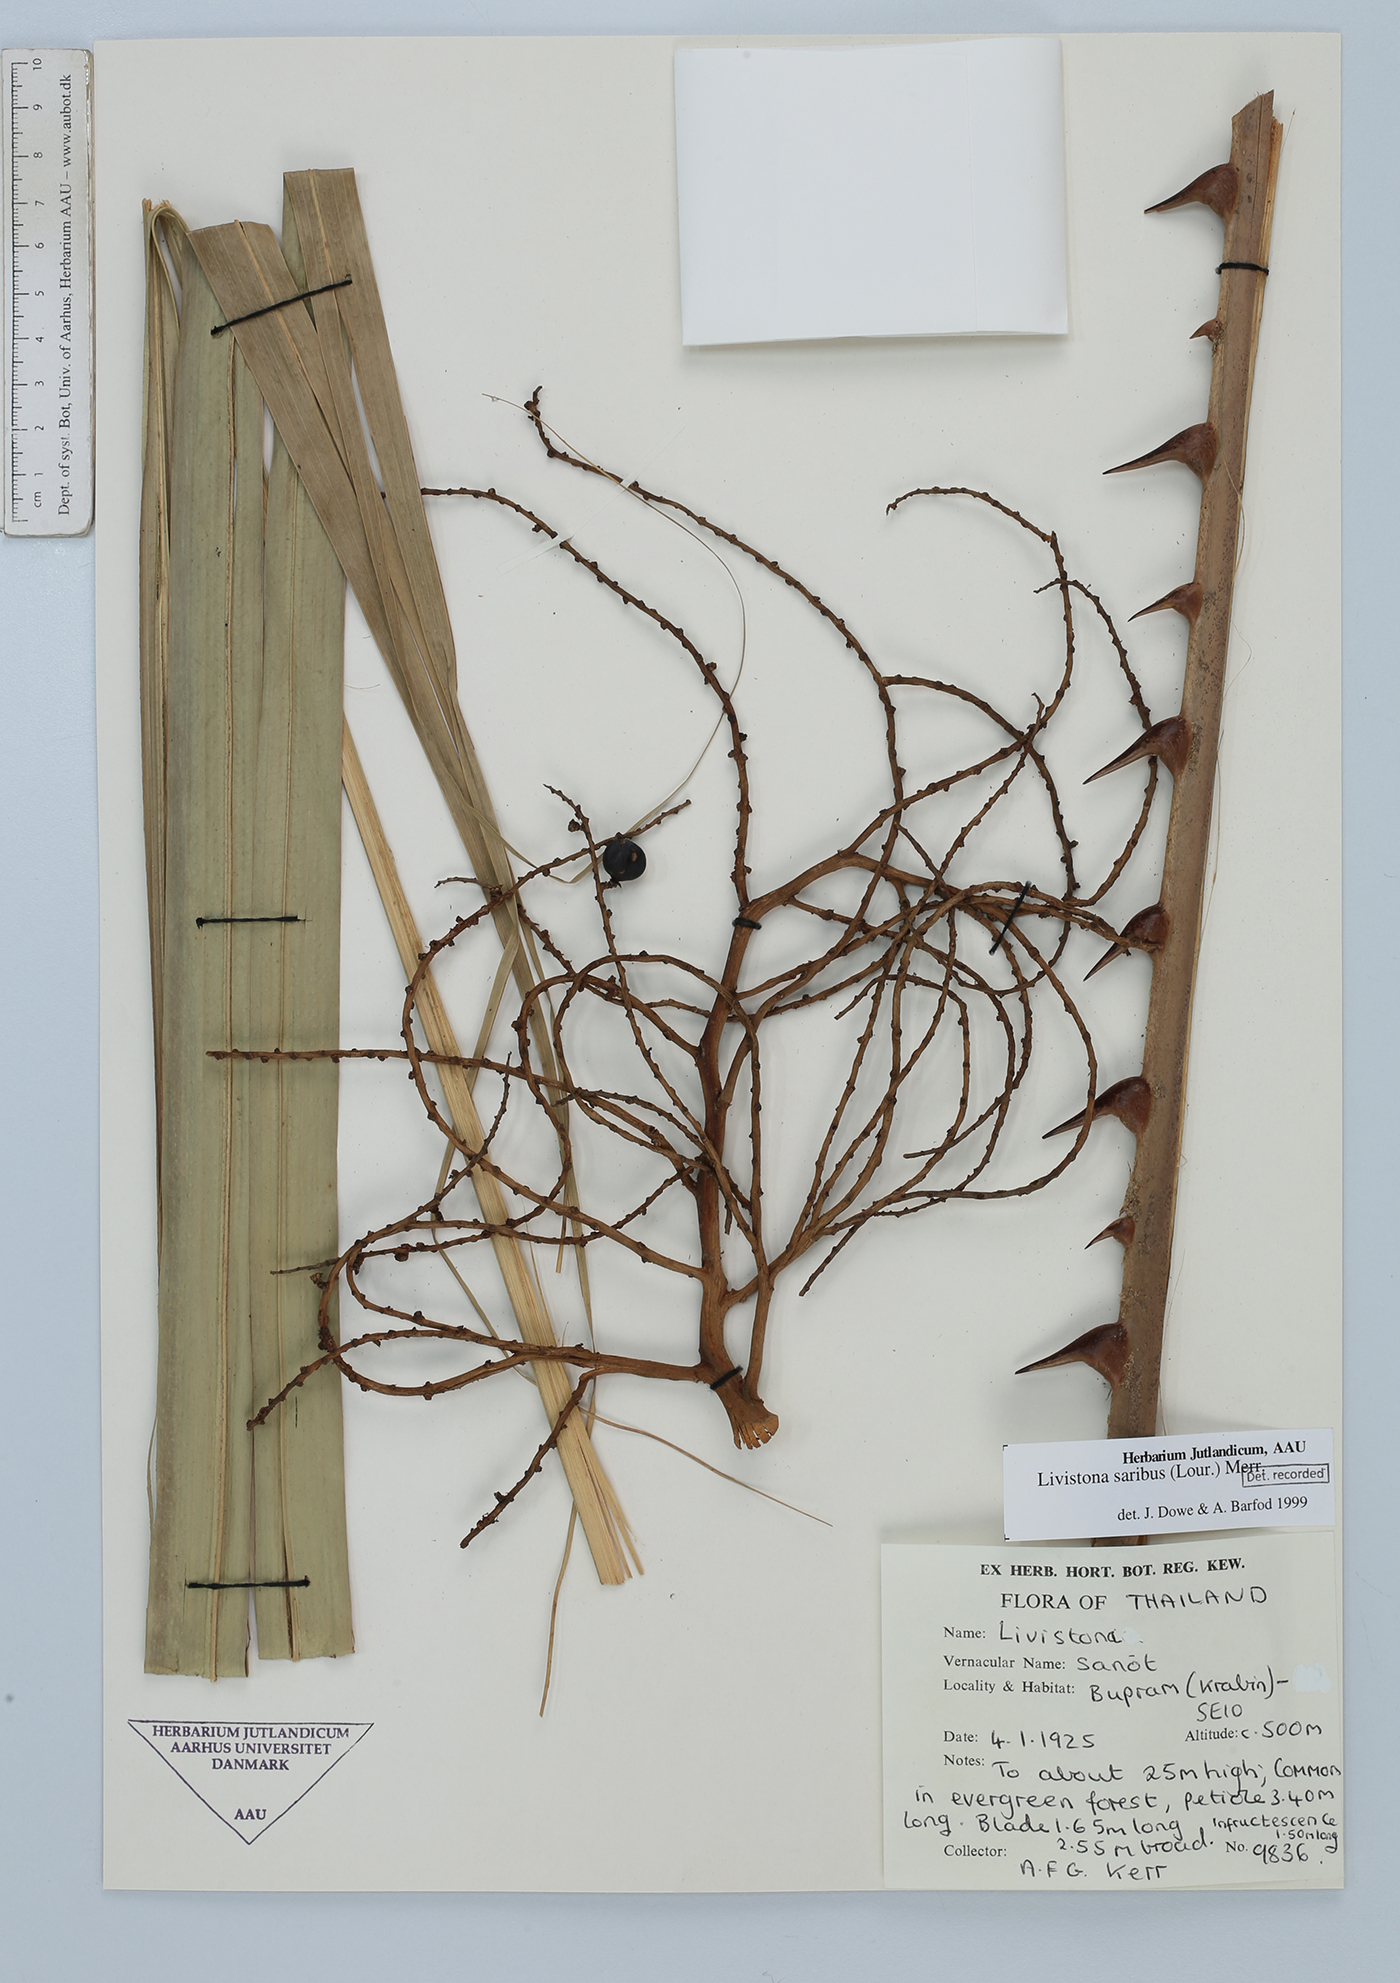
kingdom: Plantae
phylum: Tracheophyta
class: Liliopsida
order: Arecales
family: Arecaceae
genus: Livistona
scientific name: Livistona saribus
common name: Taraw palm
